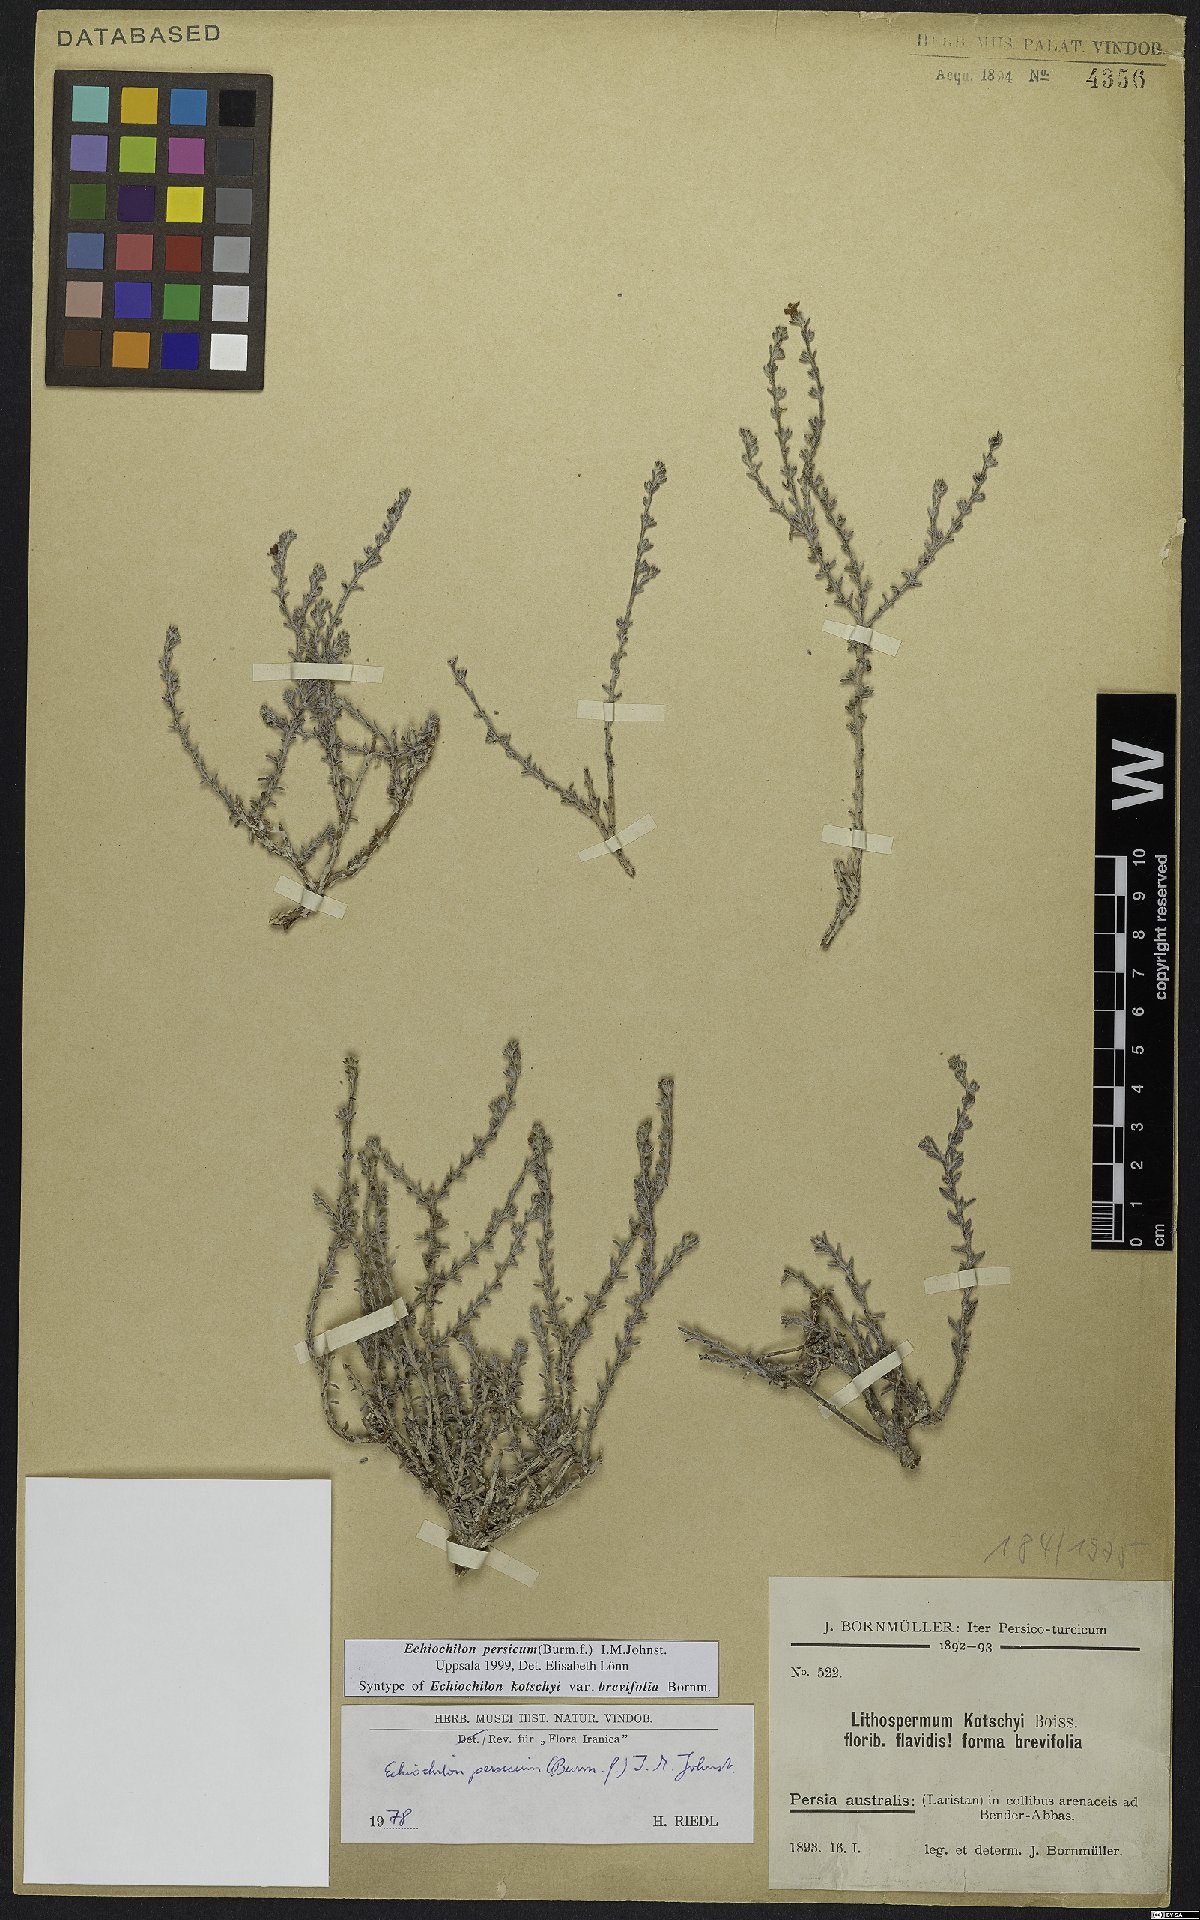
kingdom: Plantae
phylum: Tracheophyta
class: Magnoliopsida
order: Boraginales
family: Boraginaceae
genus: Echiochilon
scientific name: Echiochilon persicum
